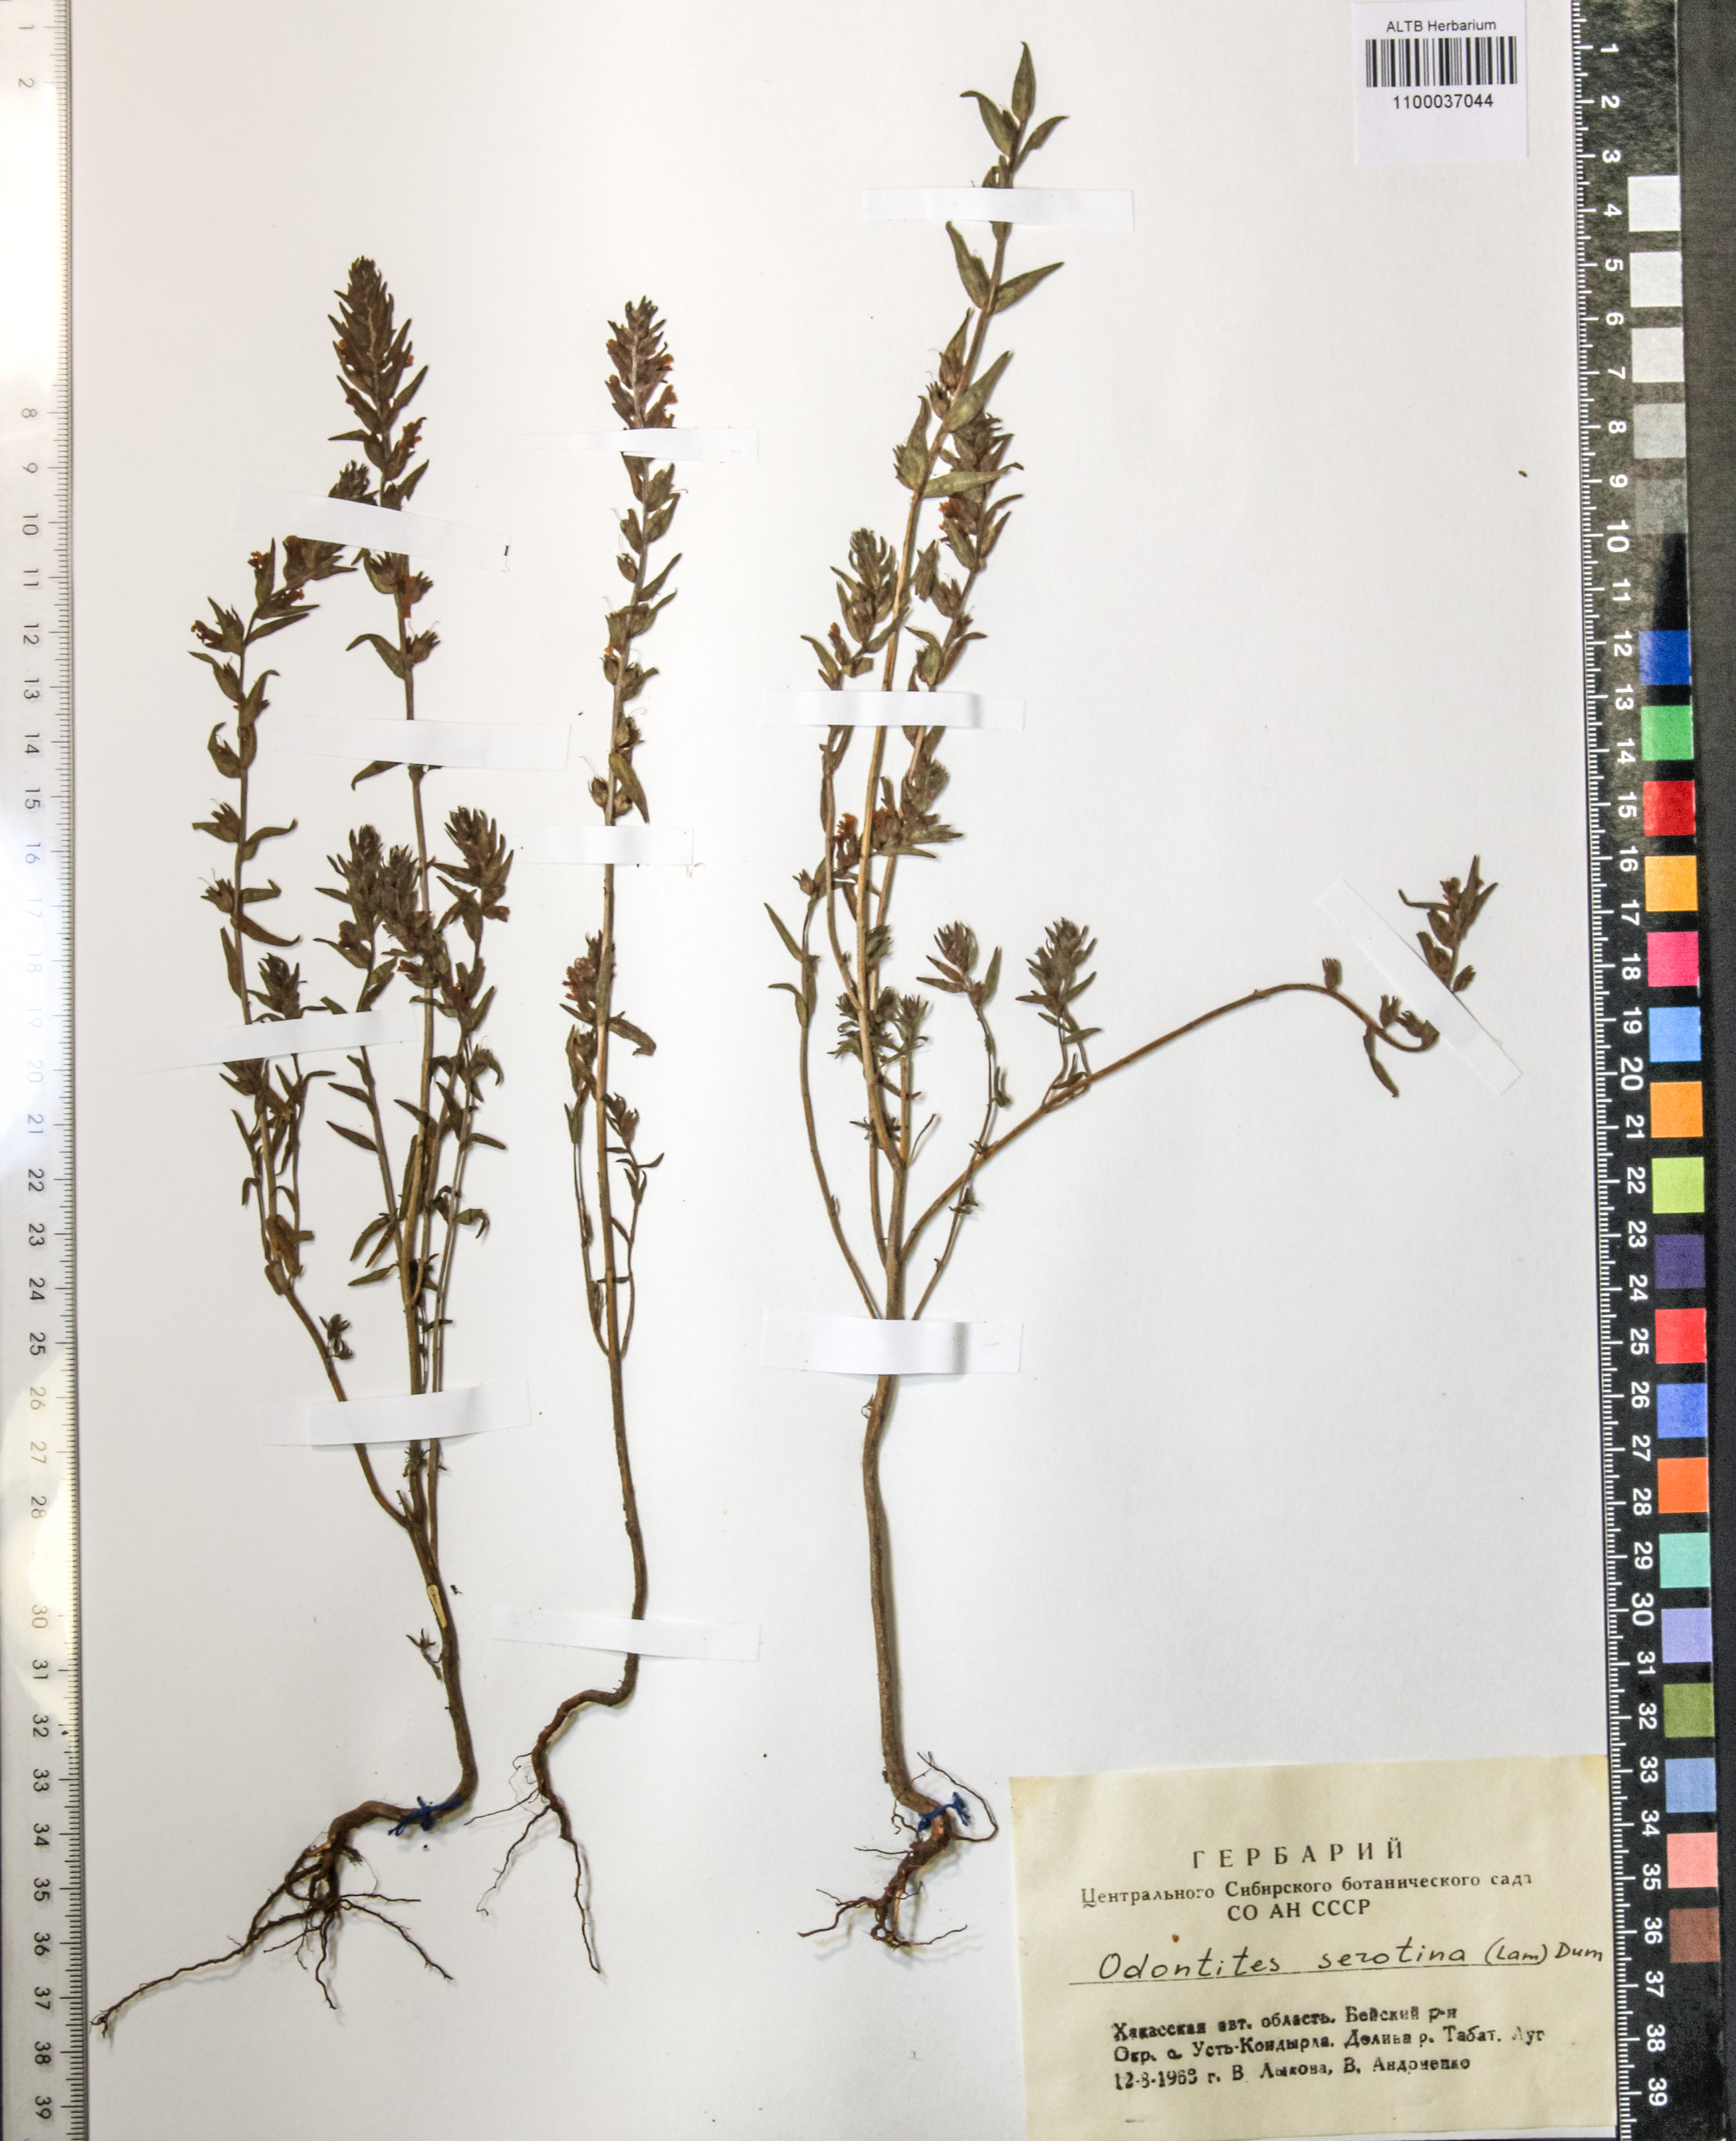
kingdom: Plantae
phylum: Tracheophyta
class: Magnoliopsida
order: Lamiales
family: Orobanchaceae
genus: Odontites
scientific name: Odontites vulgaris
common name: Broomrape
